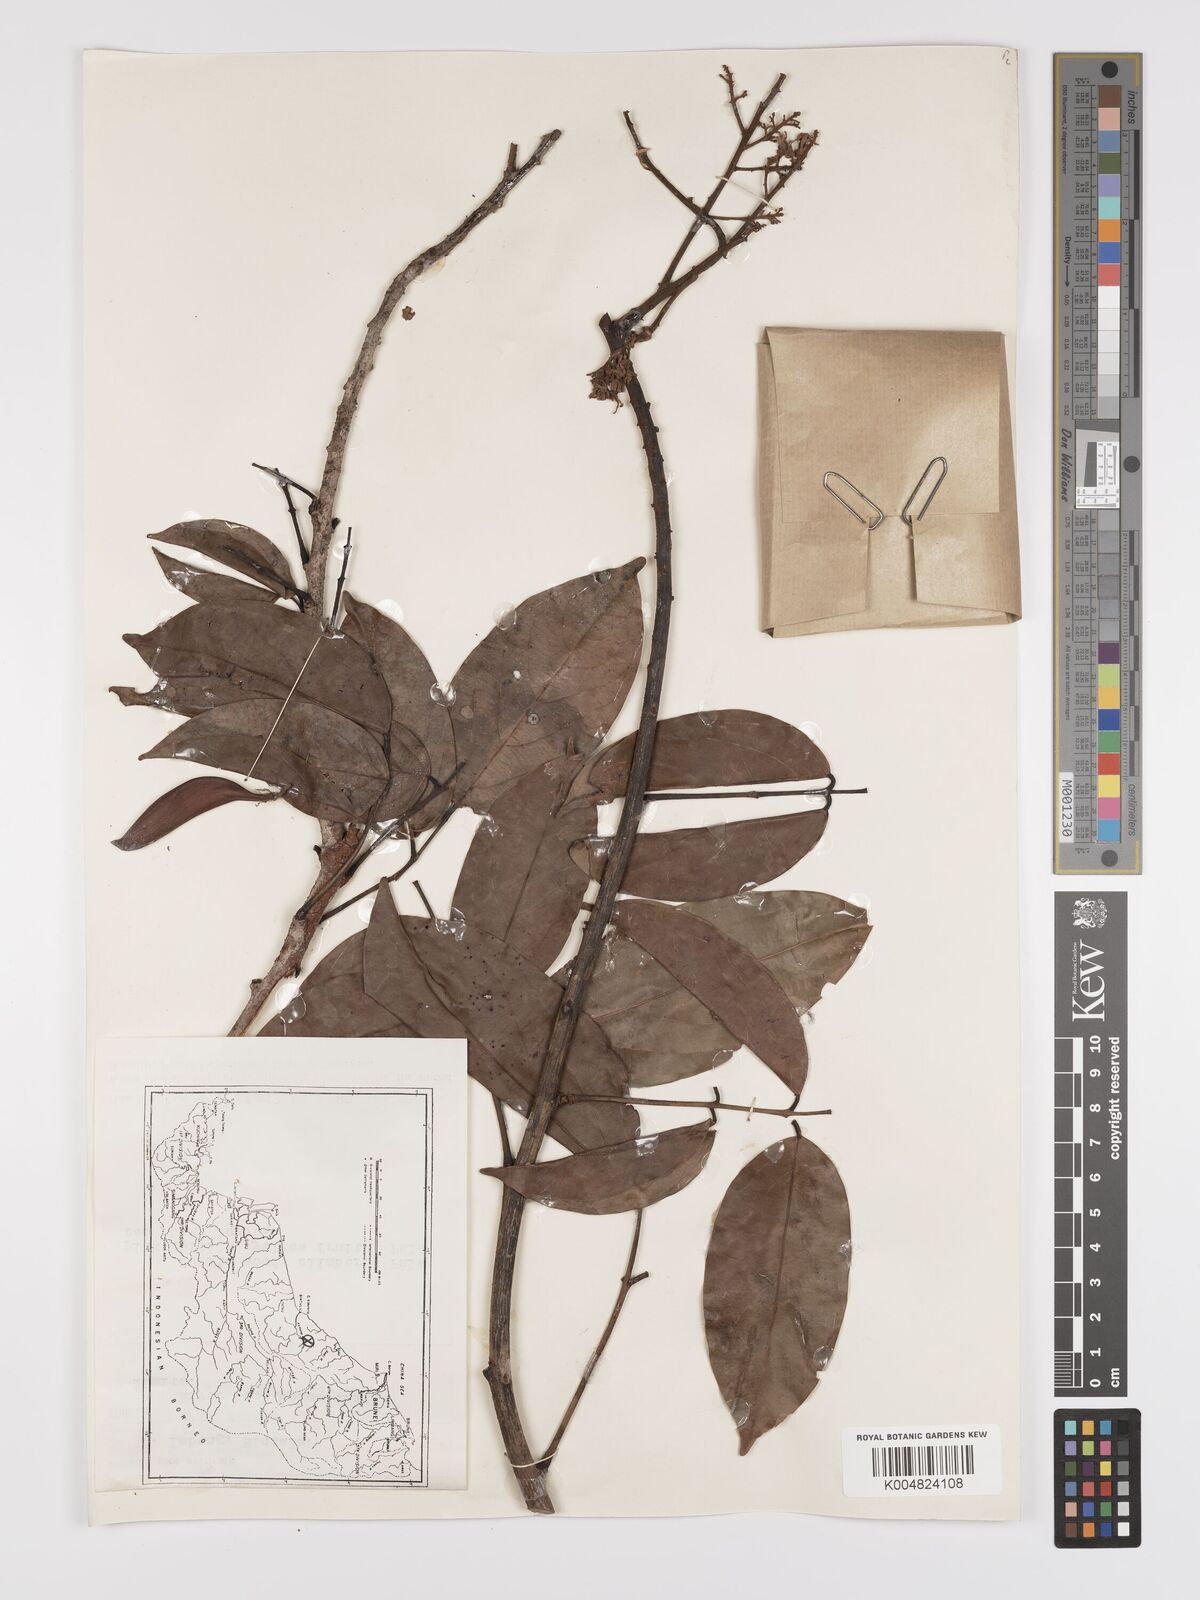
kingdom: Plantae
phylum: Tracheophyta
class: Magnoliopsida
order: Oxalidales
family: Connaraceae
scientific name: Connaraceae
